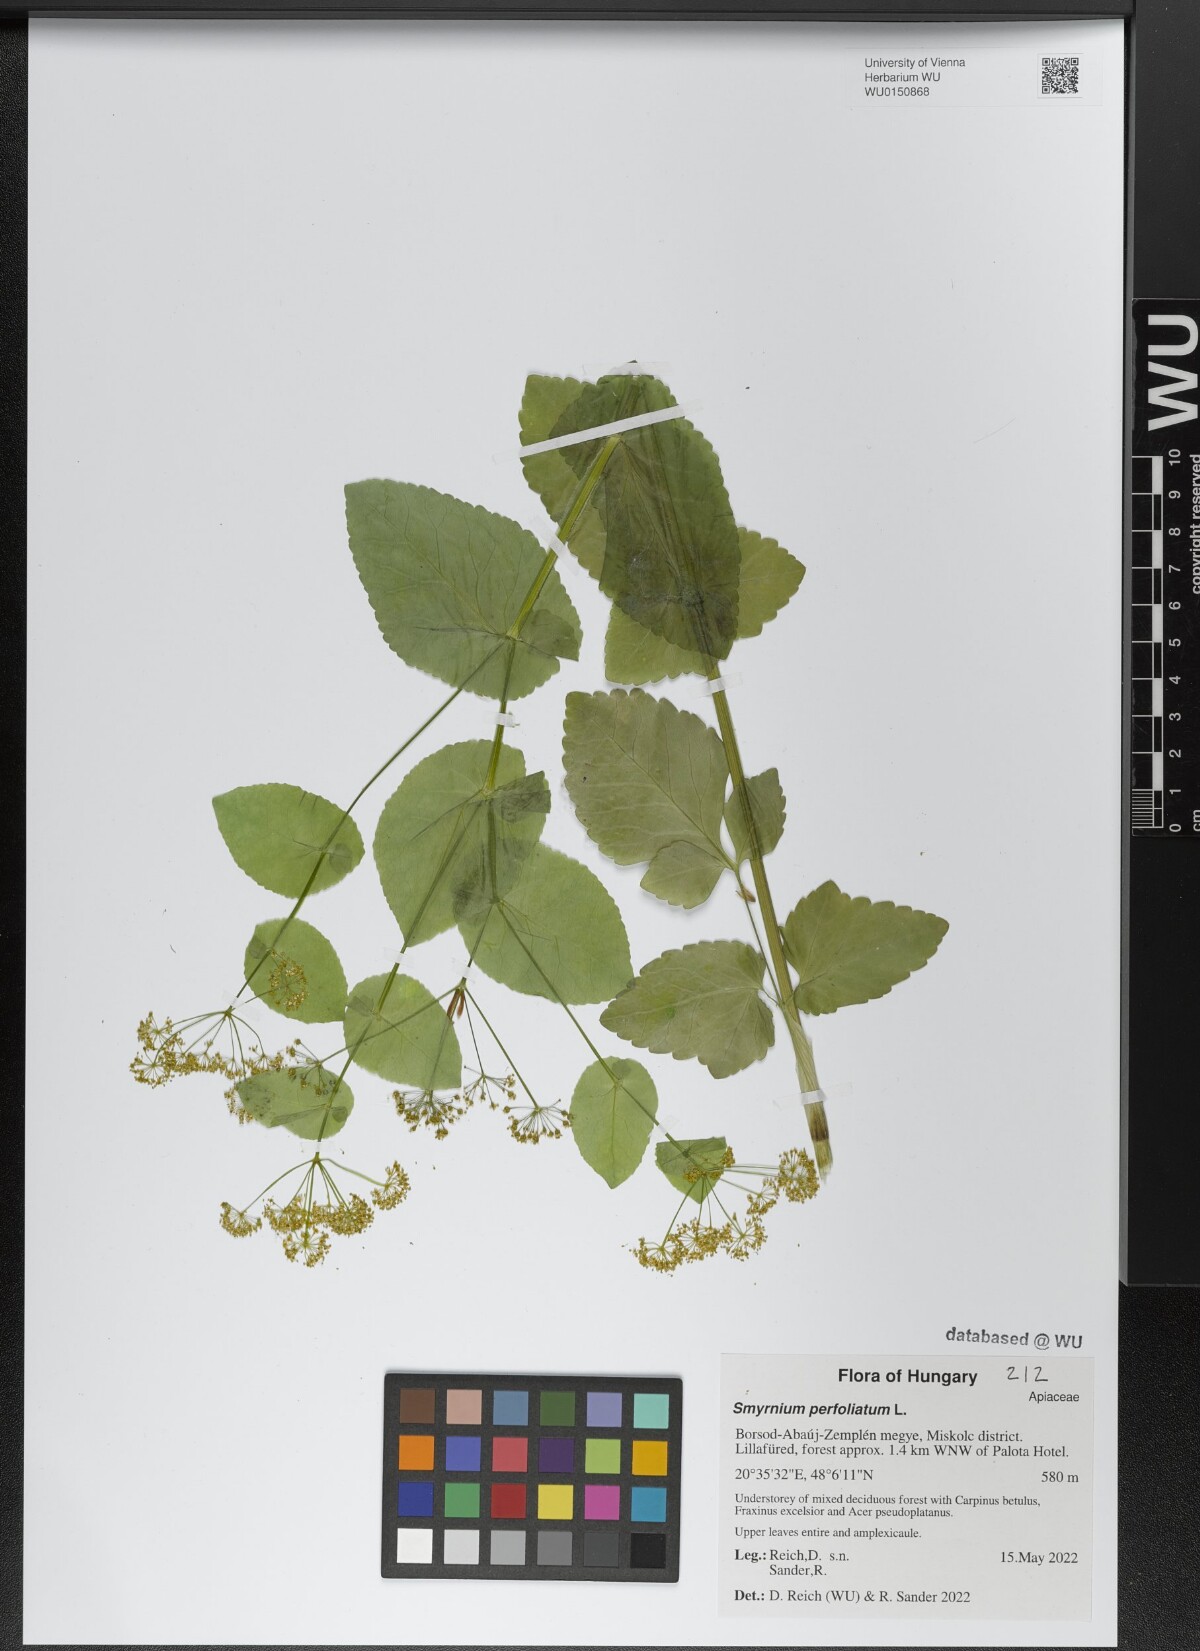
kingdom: Plantae
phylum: Tracheophyta
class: Magnoliopsida
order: Apiales
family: Apiaceae
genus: Smyrnium
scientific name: Smyrnium perfoliatum
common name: Perfoliate alexanders
